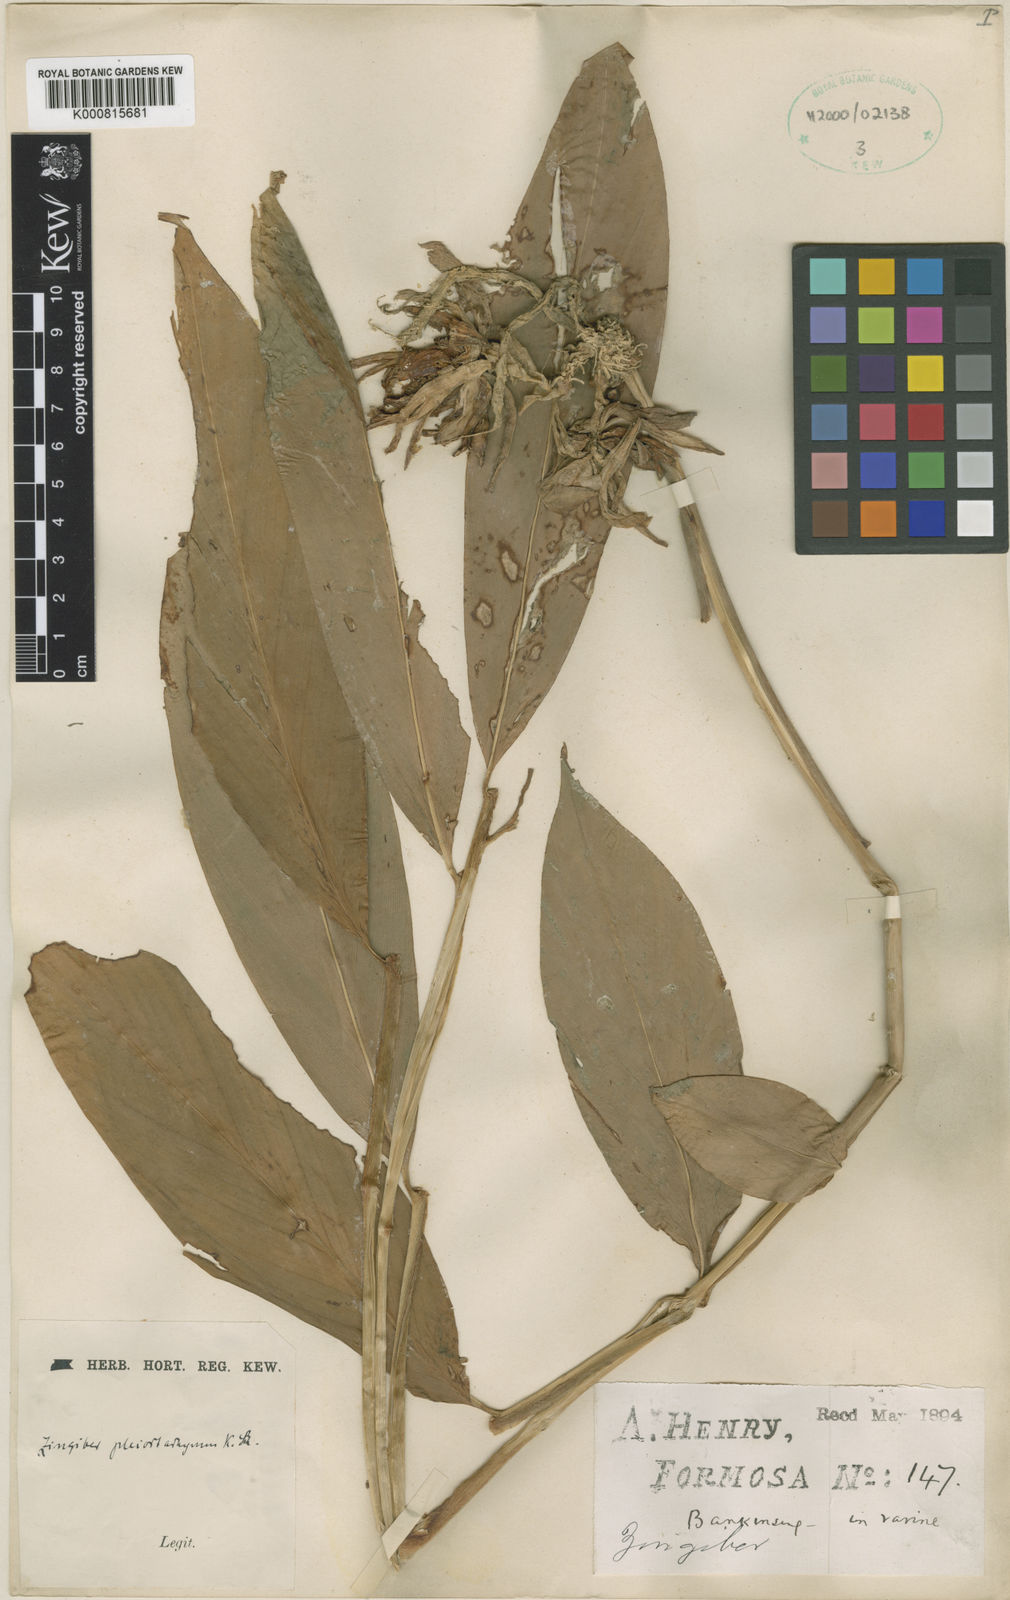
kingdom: Plantae
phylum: Tracheophyta
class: Liliopsida
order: Zingiberales
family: Zingiberaceae
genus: Zingiber
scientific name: Zingiber pleiostachyum
